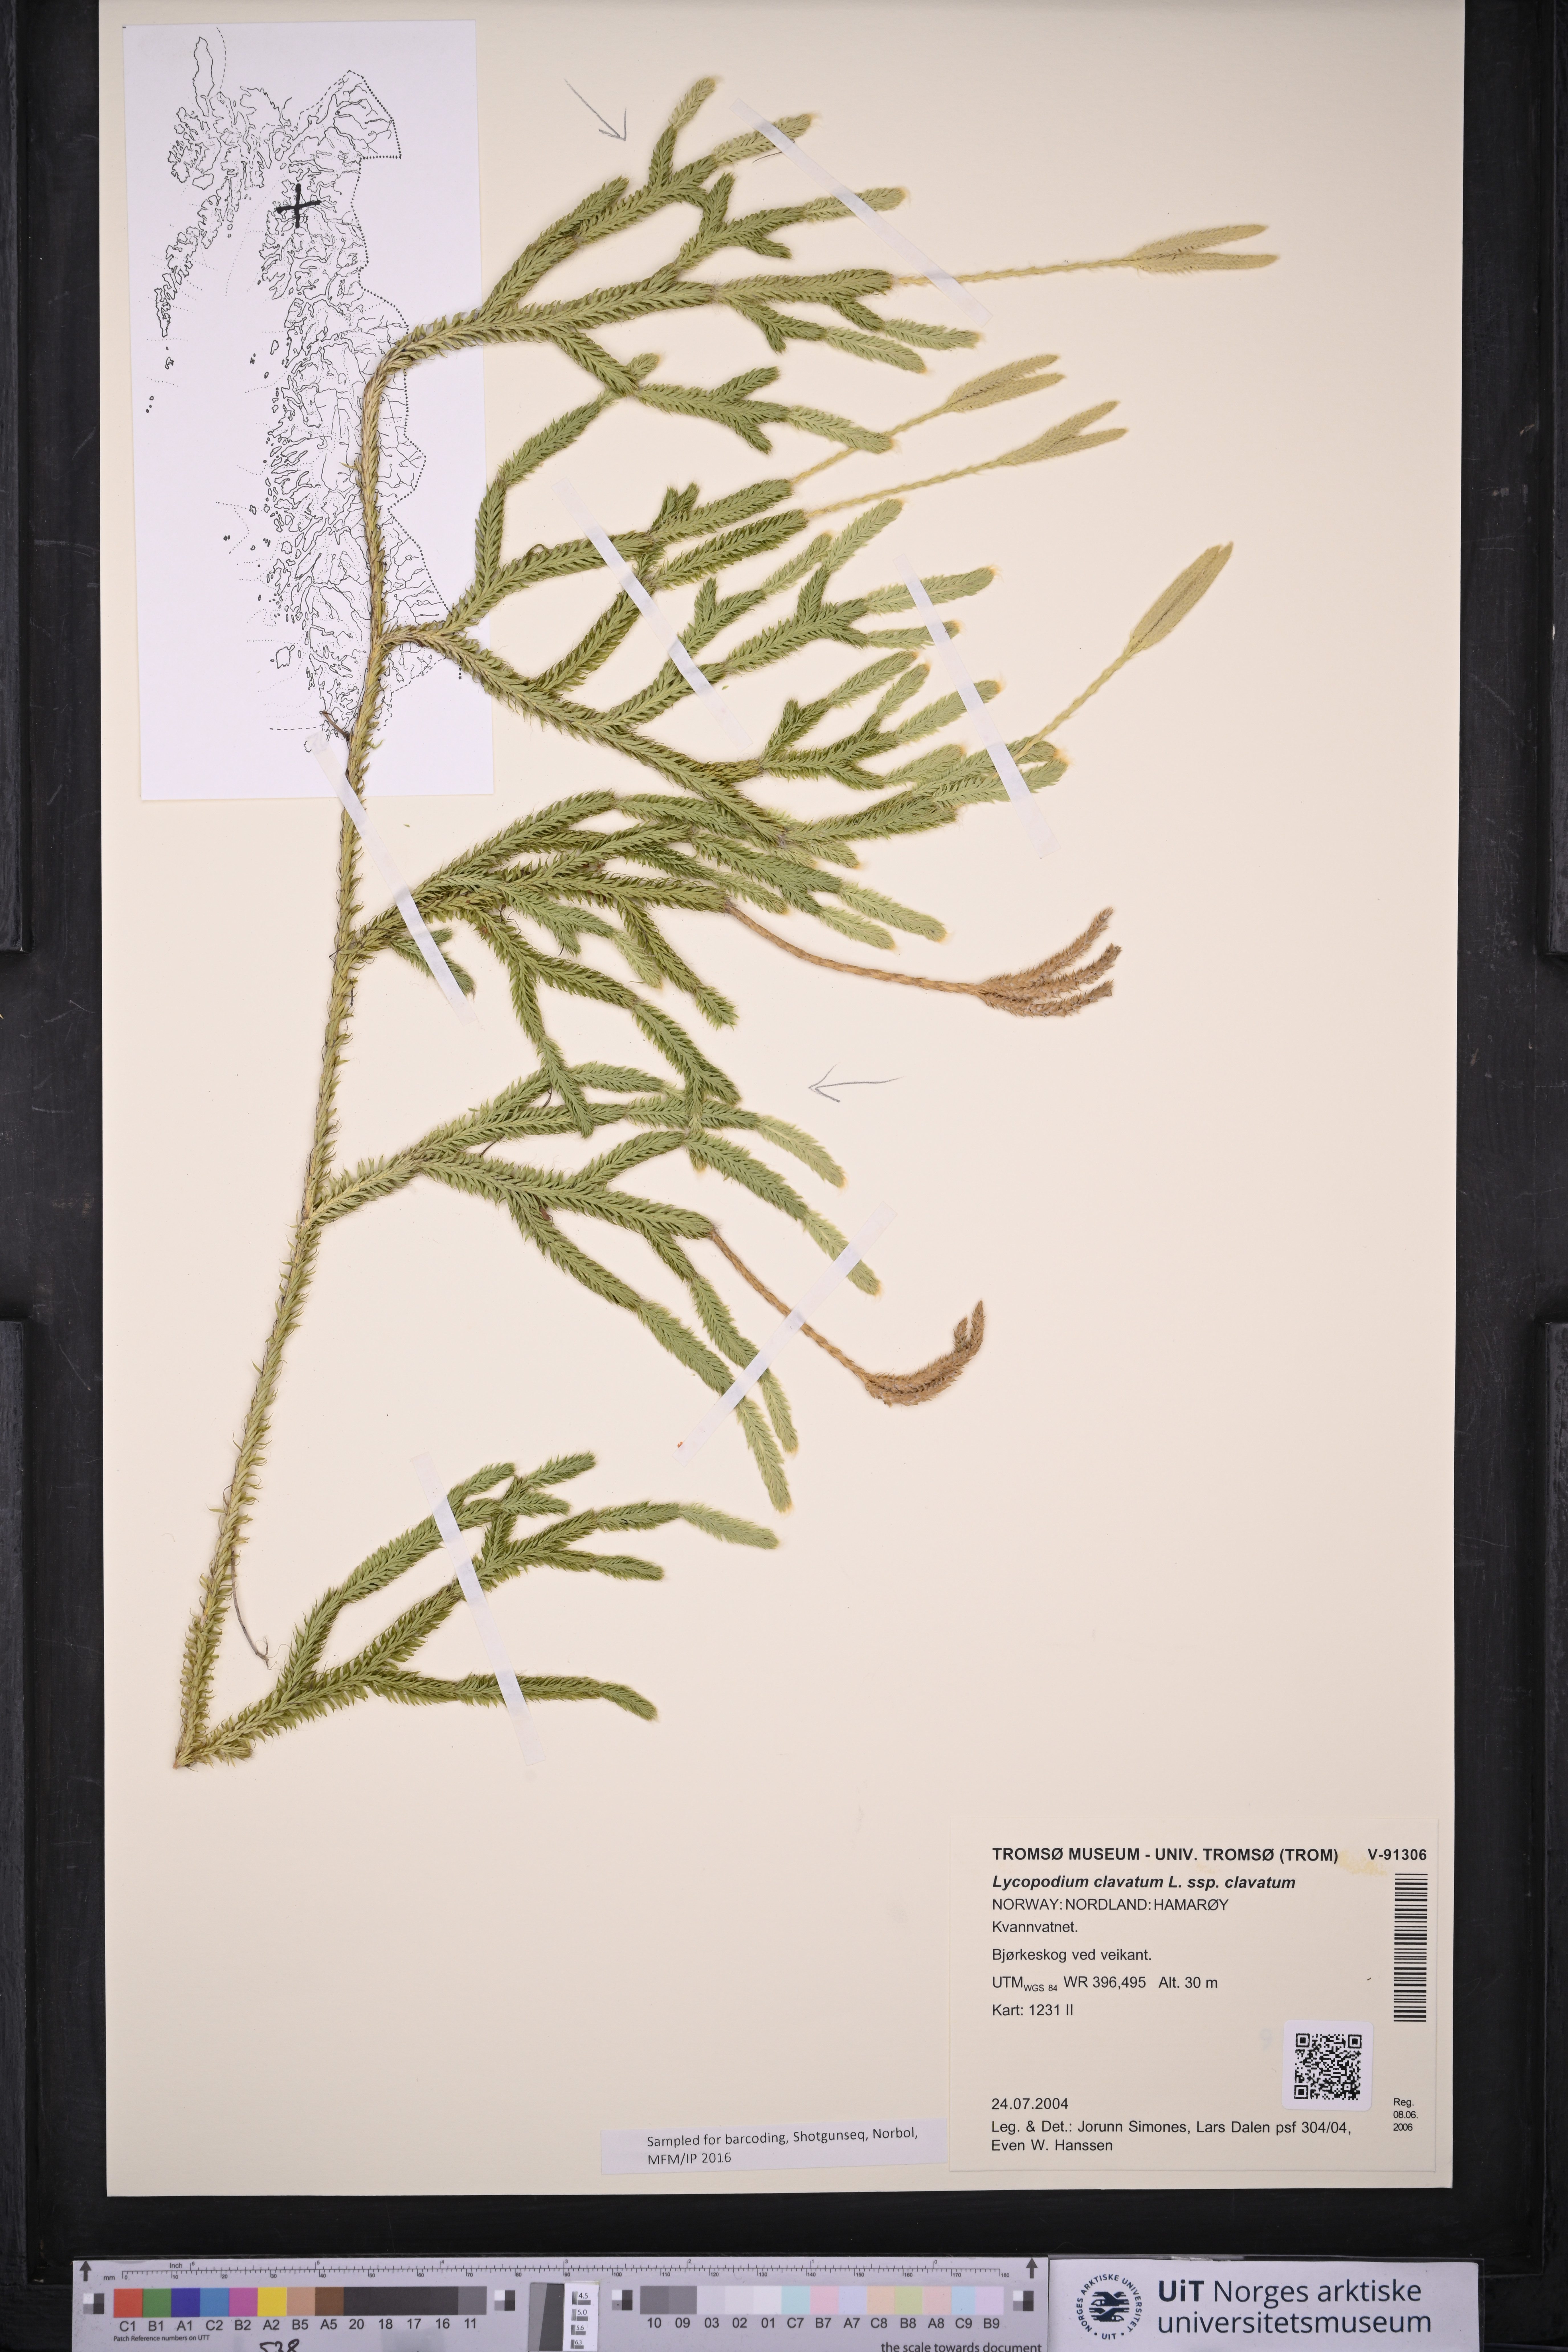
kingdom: Plantae
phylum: Tracheophyta
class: Lycopodiopsida
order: Lycopodiales
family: Lycopodiaceae
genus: Lycopodium
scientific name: Lycopodium clavatum
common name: Stag's-horn clubmoss
